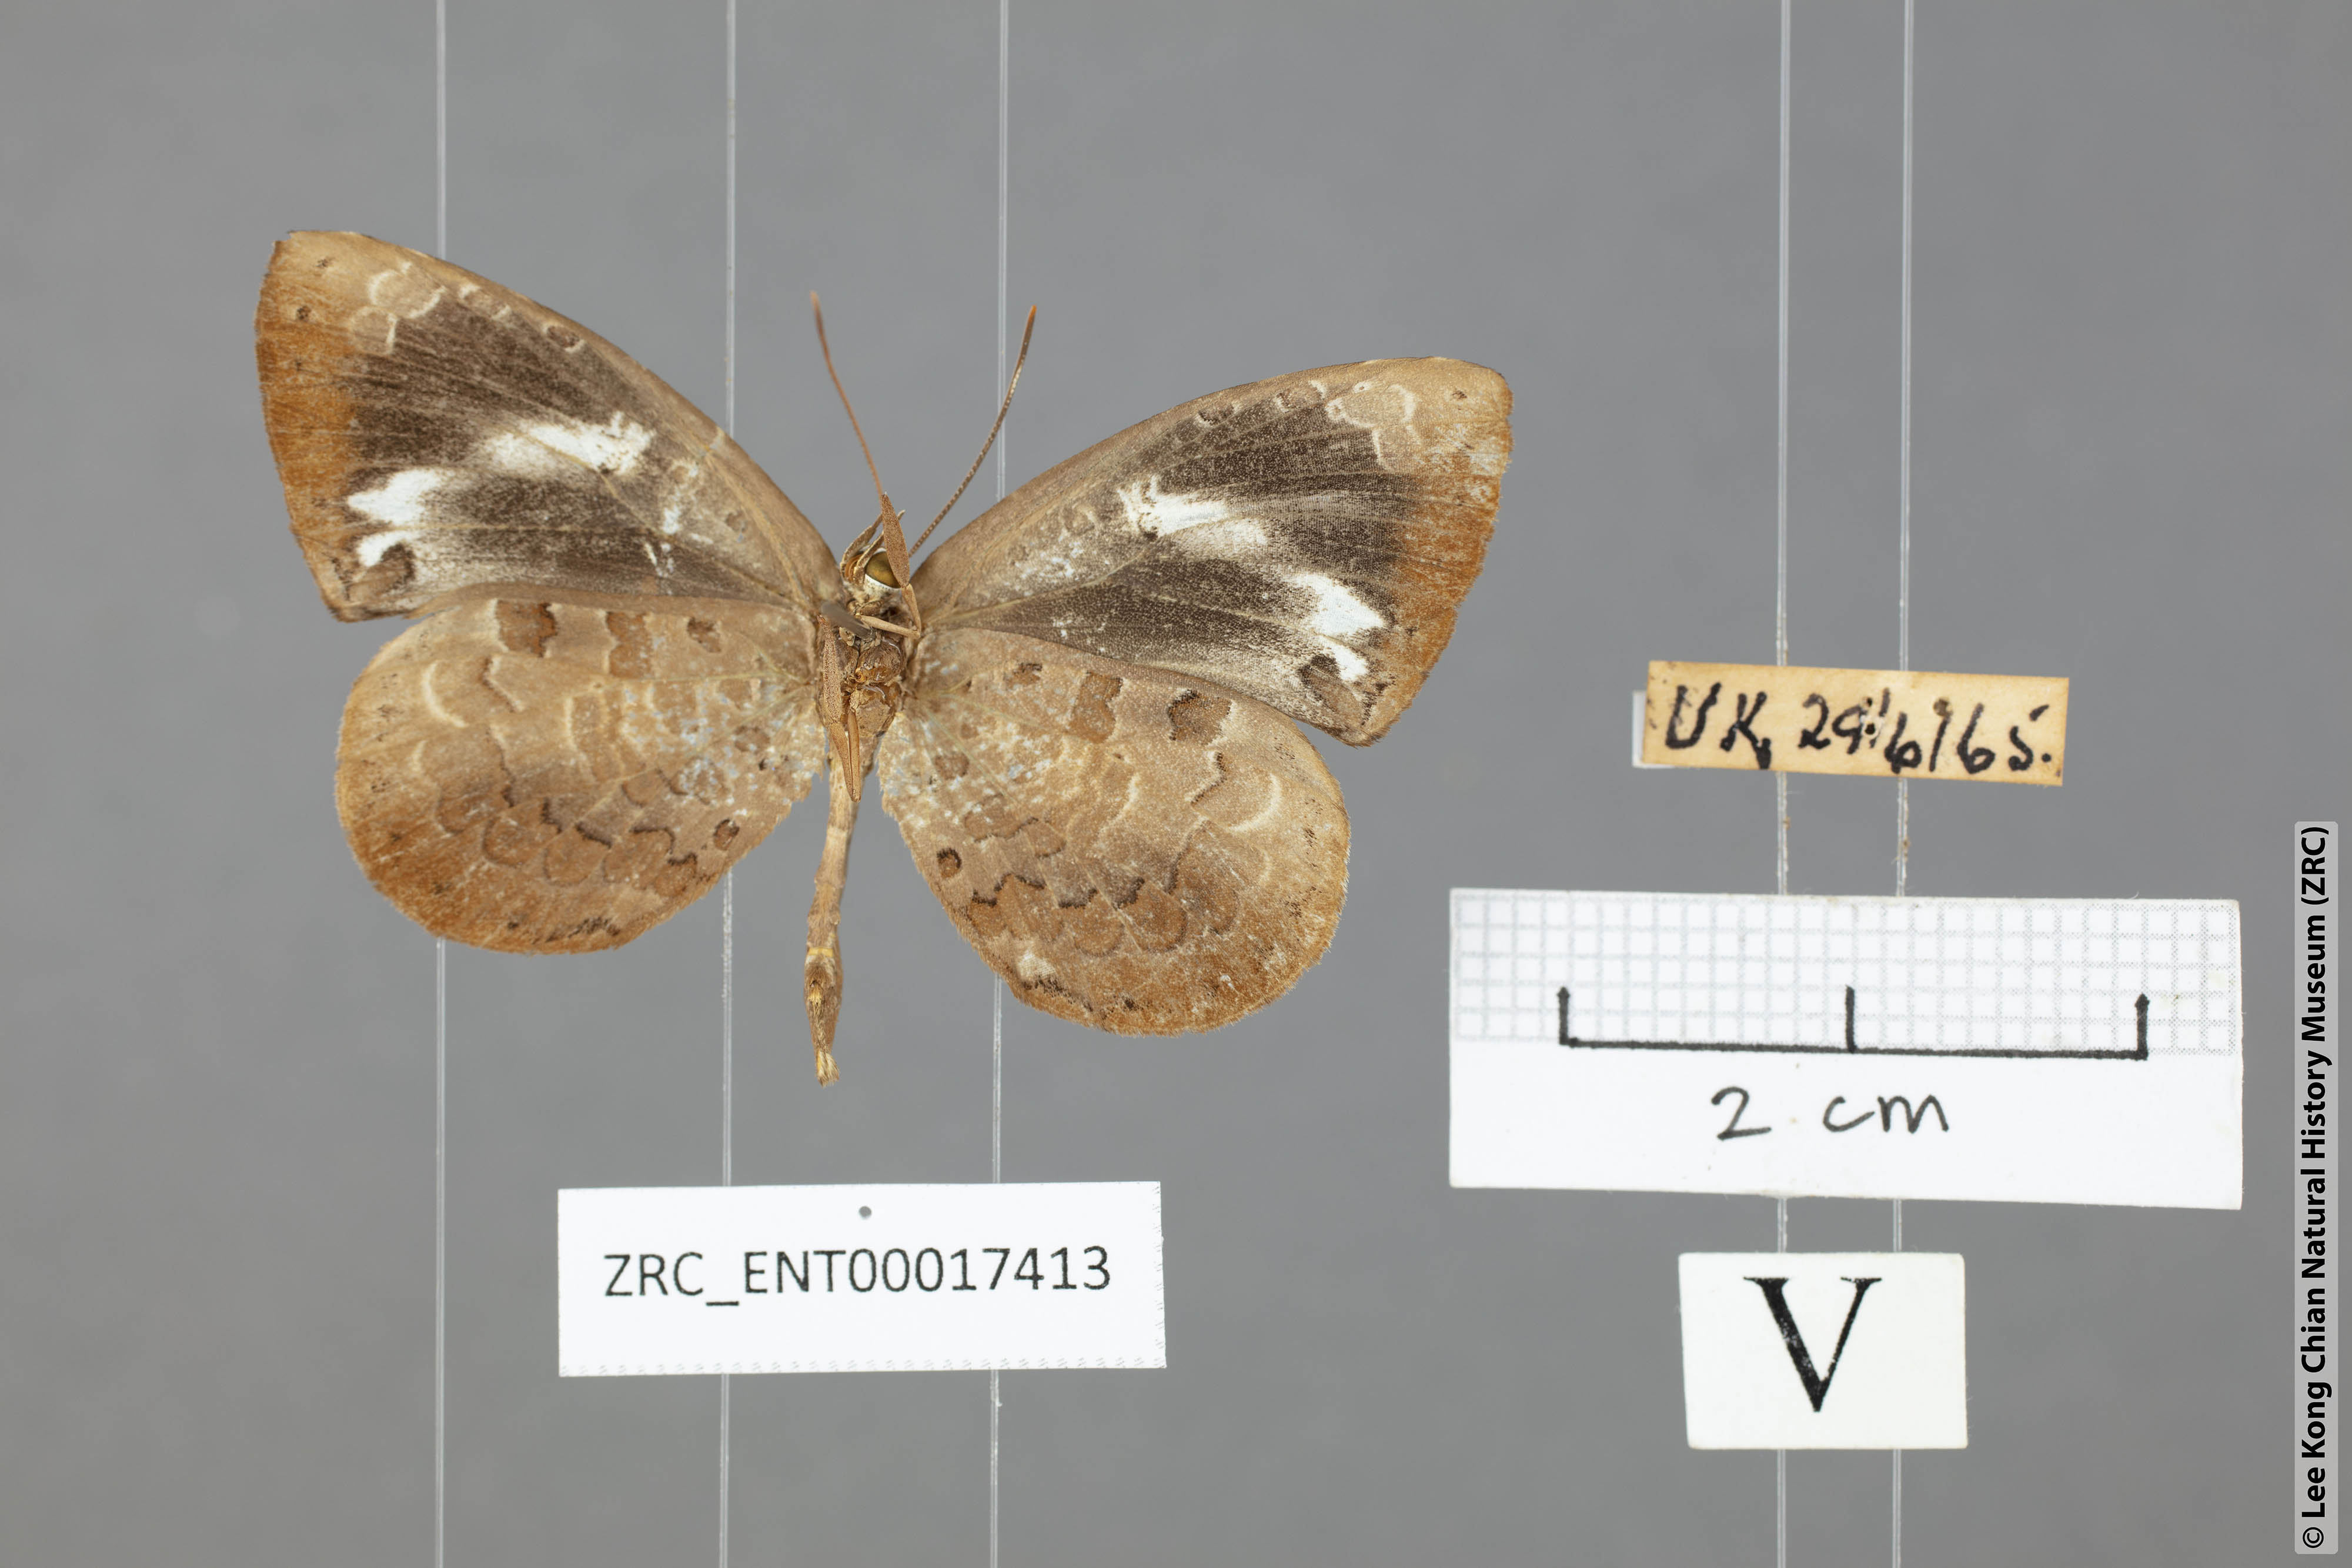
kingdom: Animalia
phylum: Arthropoda
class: Insecta
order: Lepidoptera
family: Lycaenidae
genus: Miletus
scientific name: Miletus
